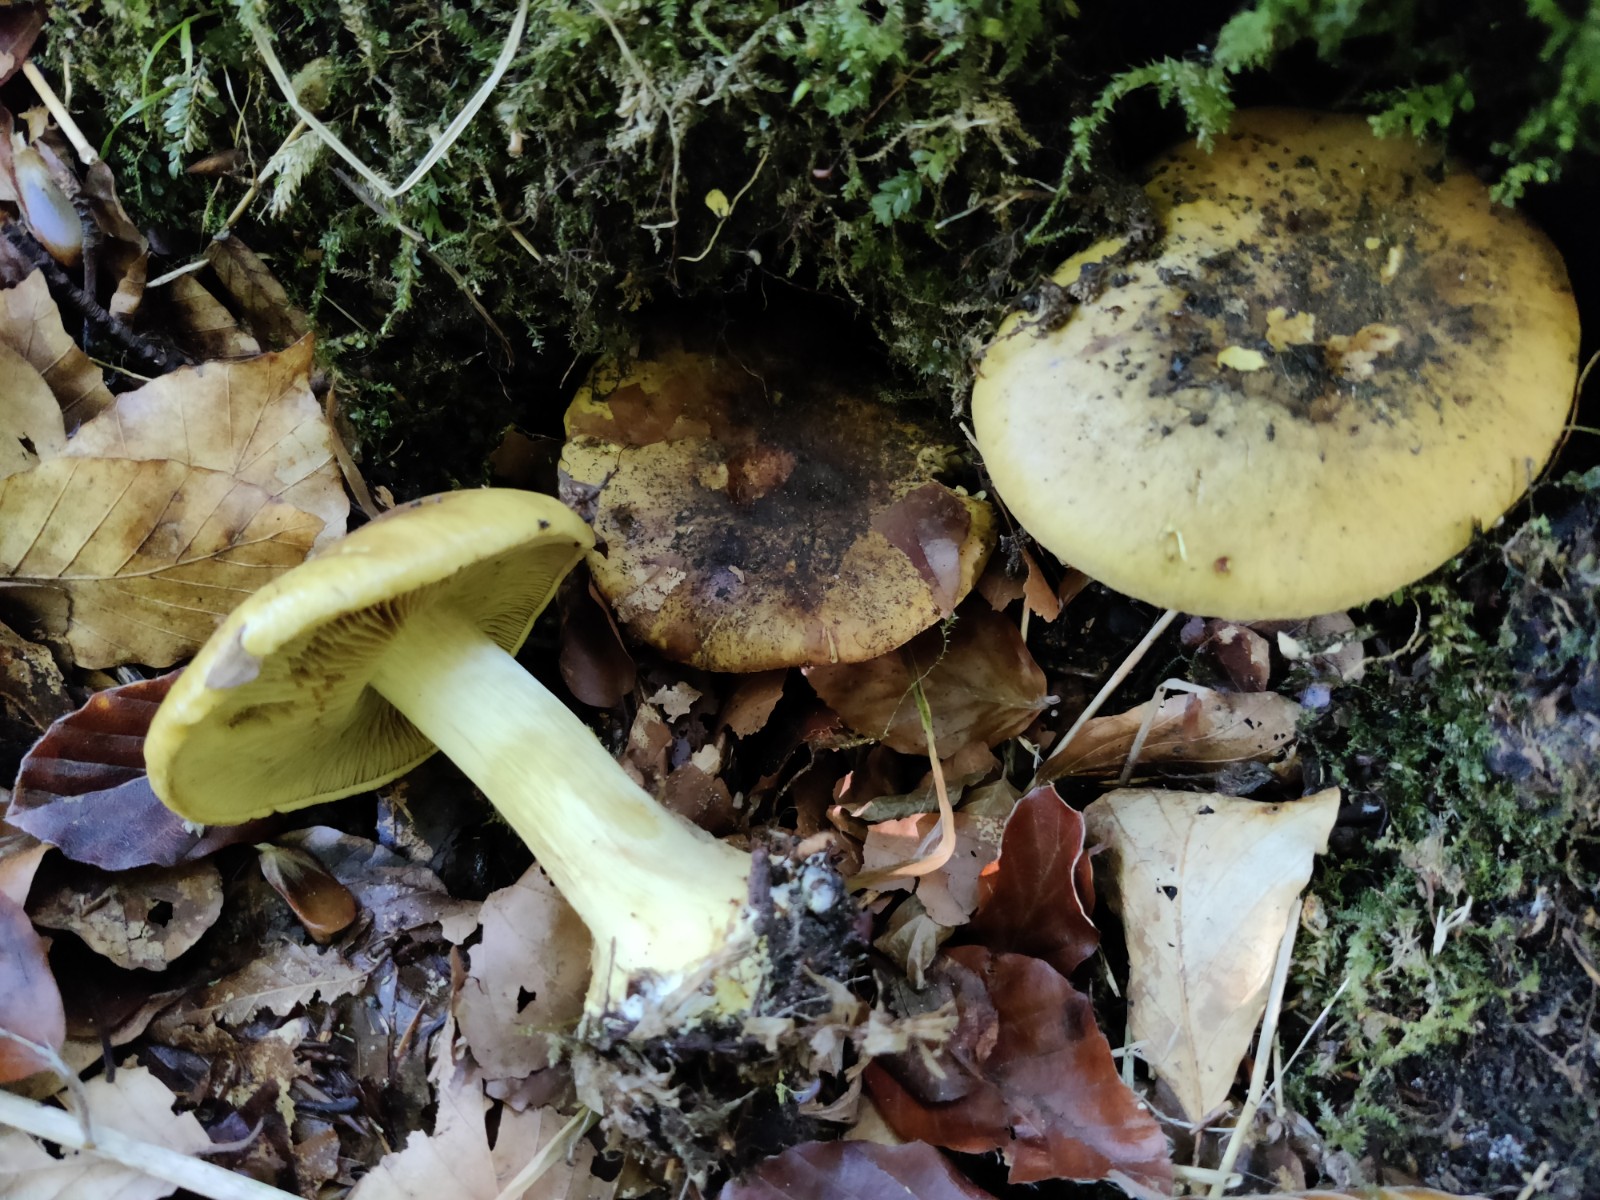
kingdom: Fungi
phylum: Basidiomycota
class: Agaricomycetes
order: Agaricales
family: Cortinariaceae
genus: Calonarius
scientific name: Calonarius citrinus
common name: citrongul slørhat
